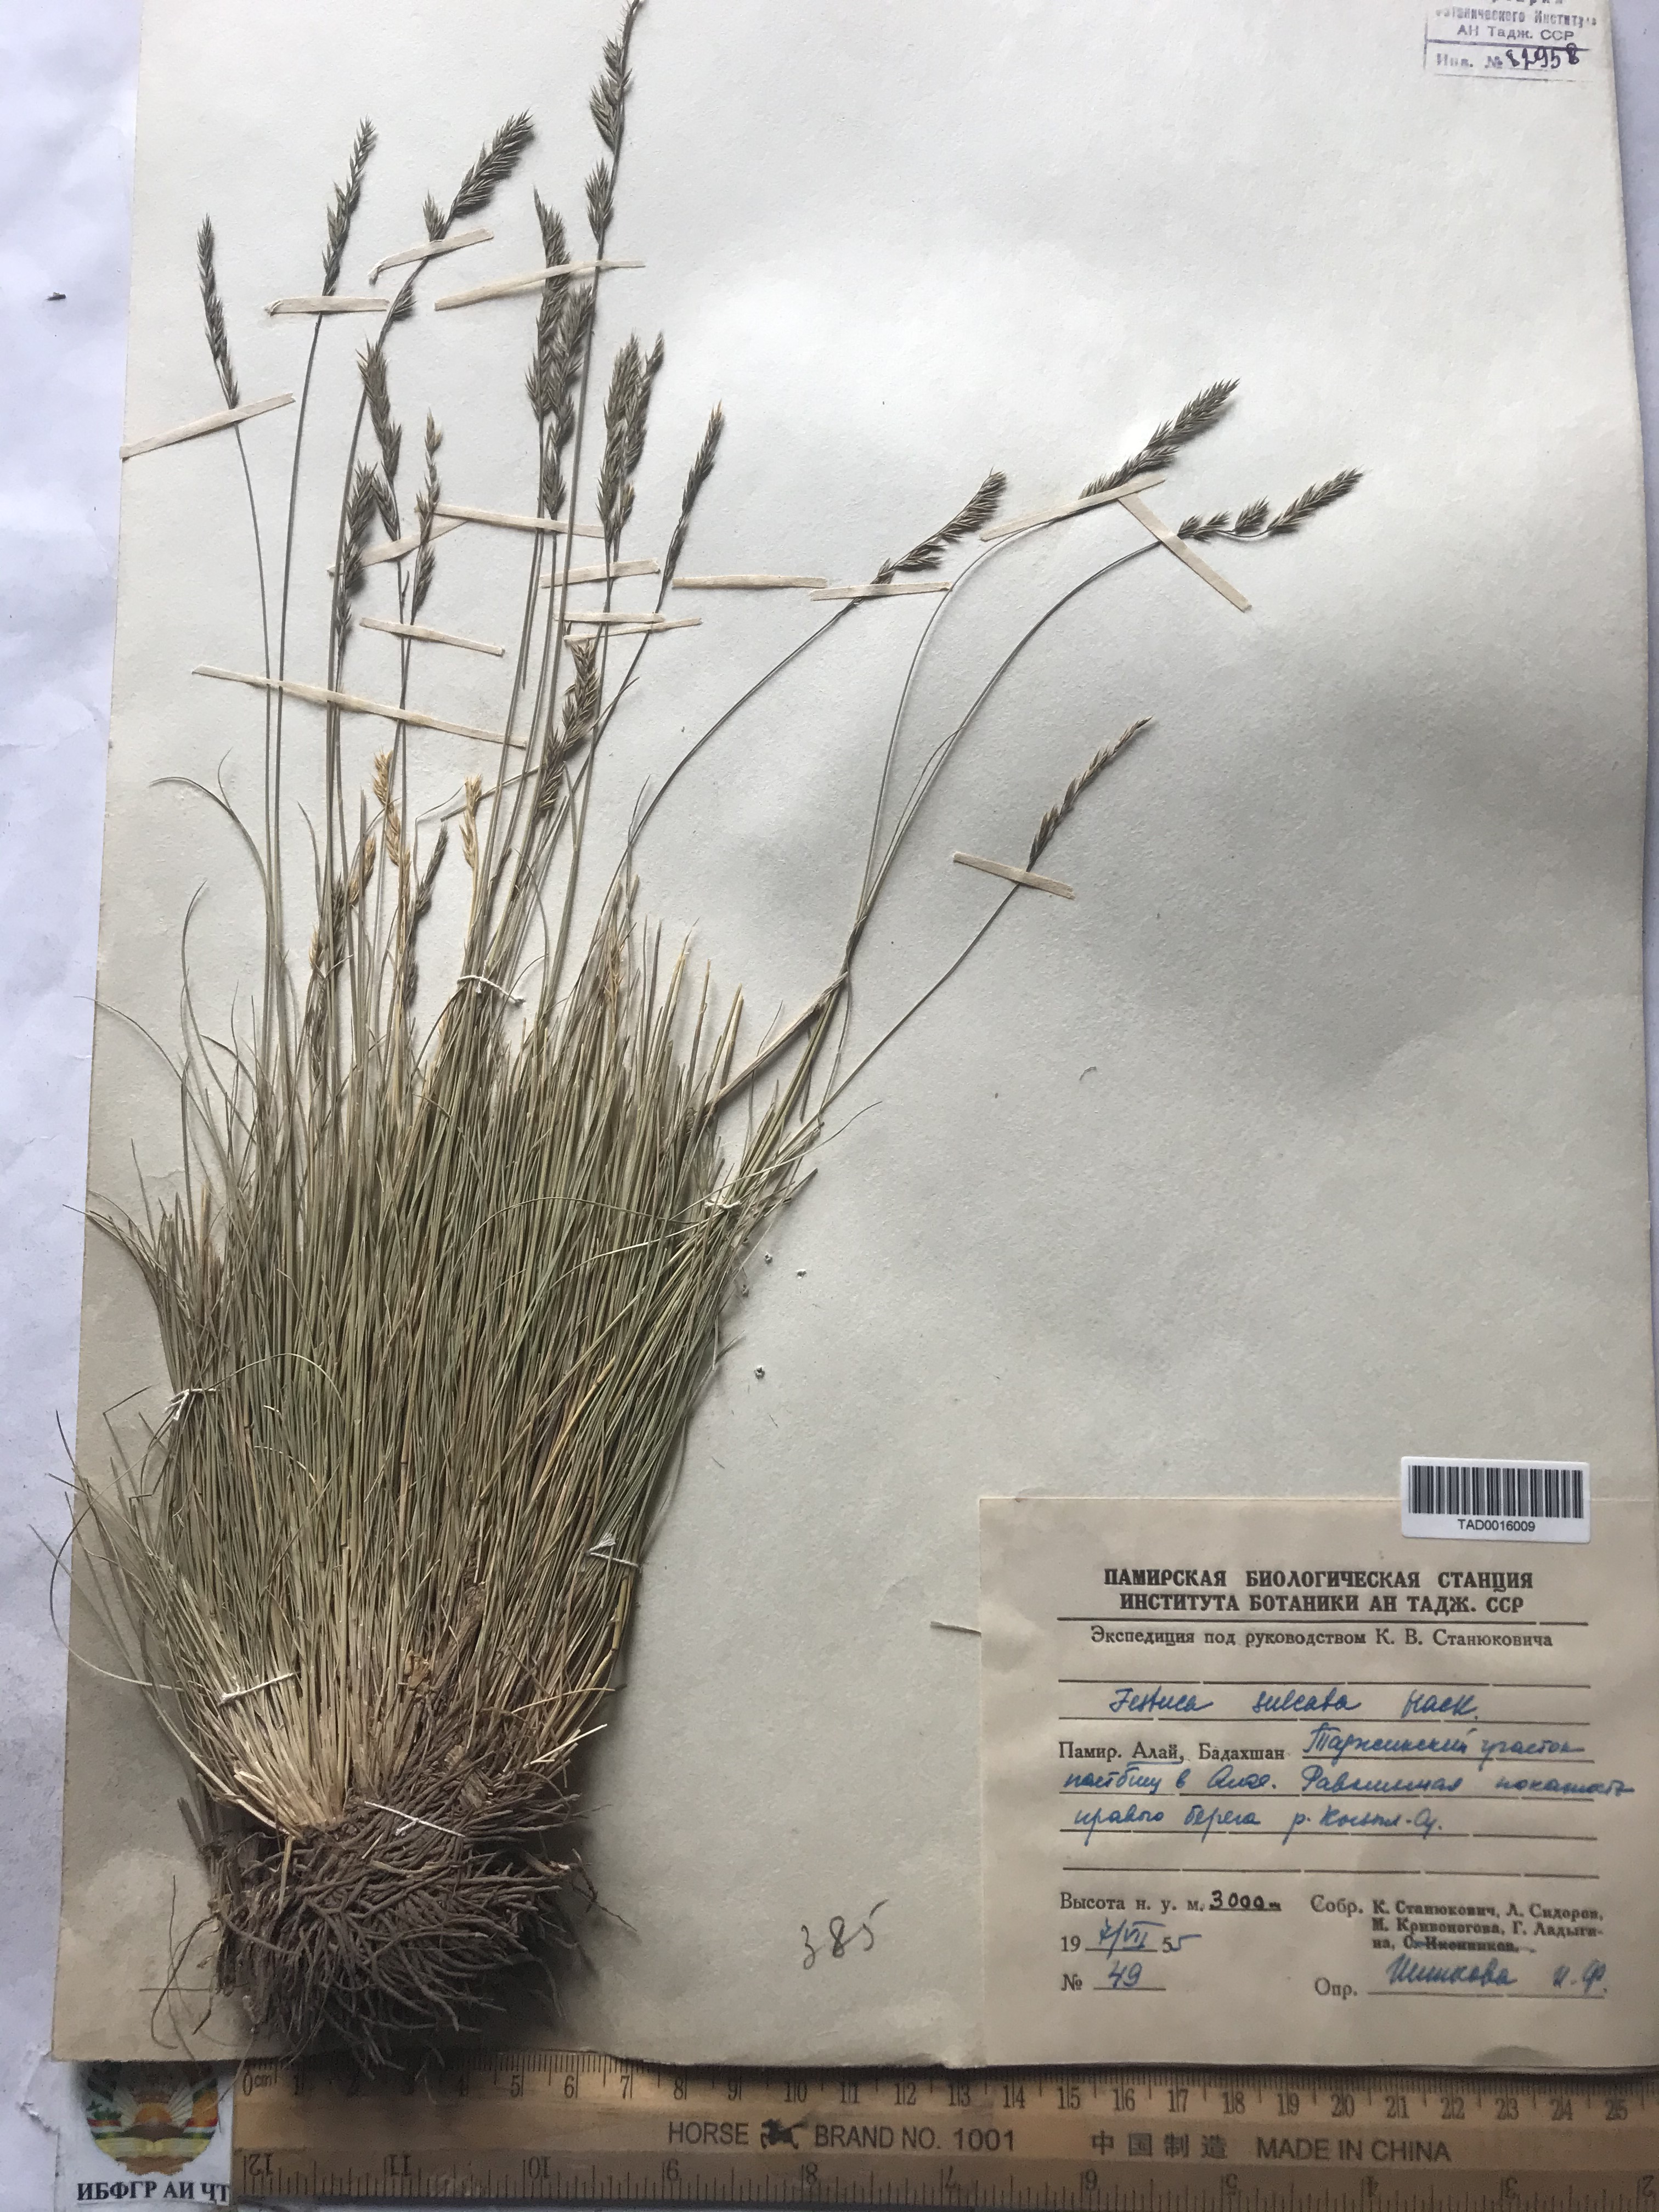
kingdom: Plantae
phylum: Tracheophyta
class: Liliopsida
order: Poales
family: Poaceae
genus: Festuca
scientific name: Festuca sulcata
